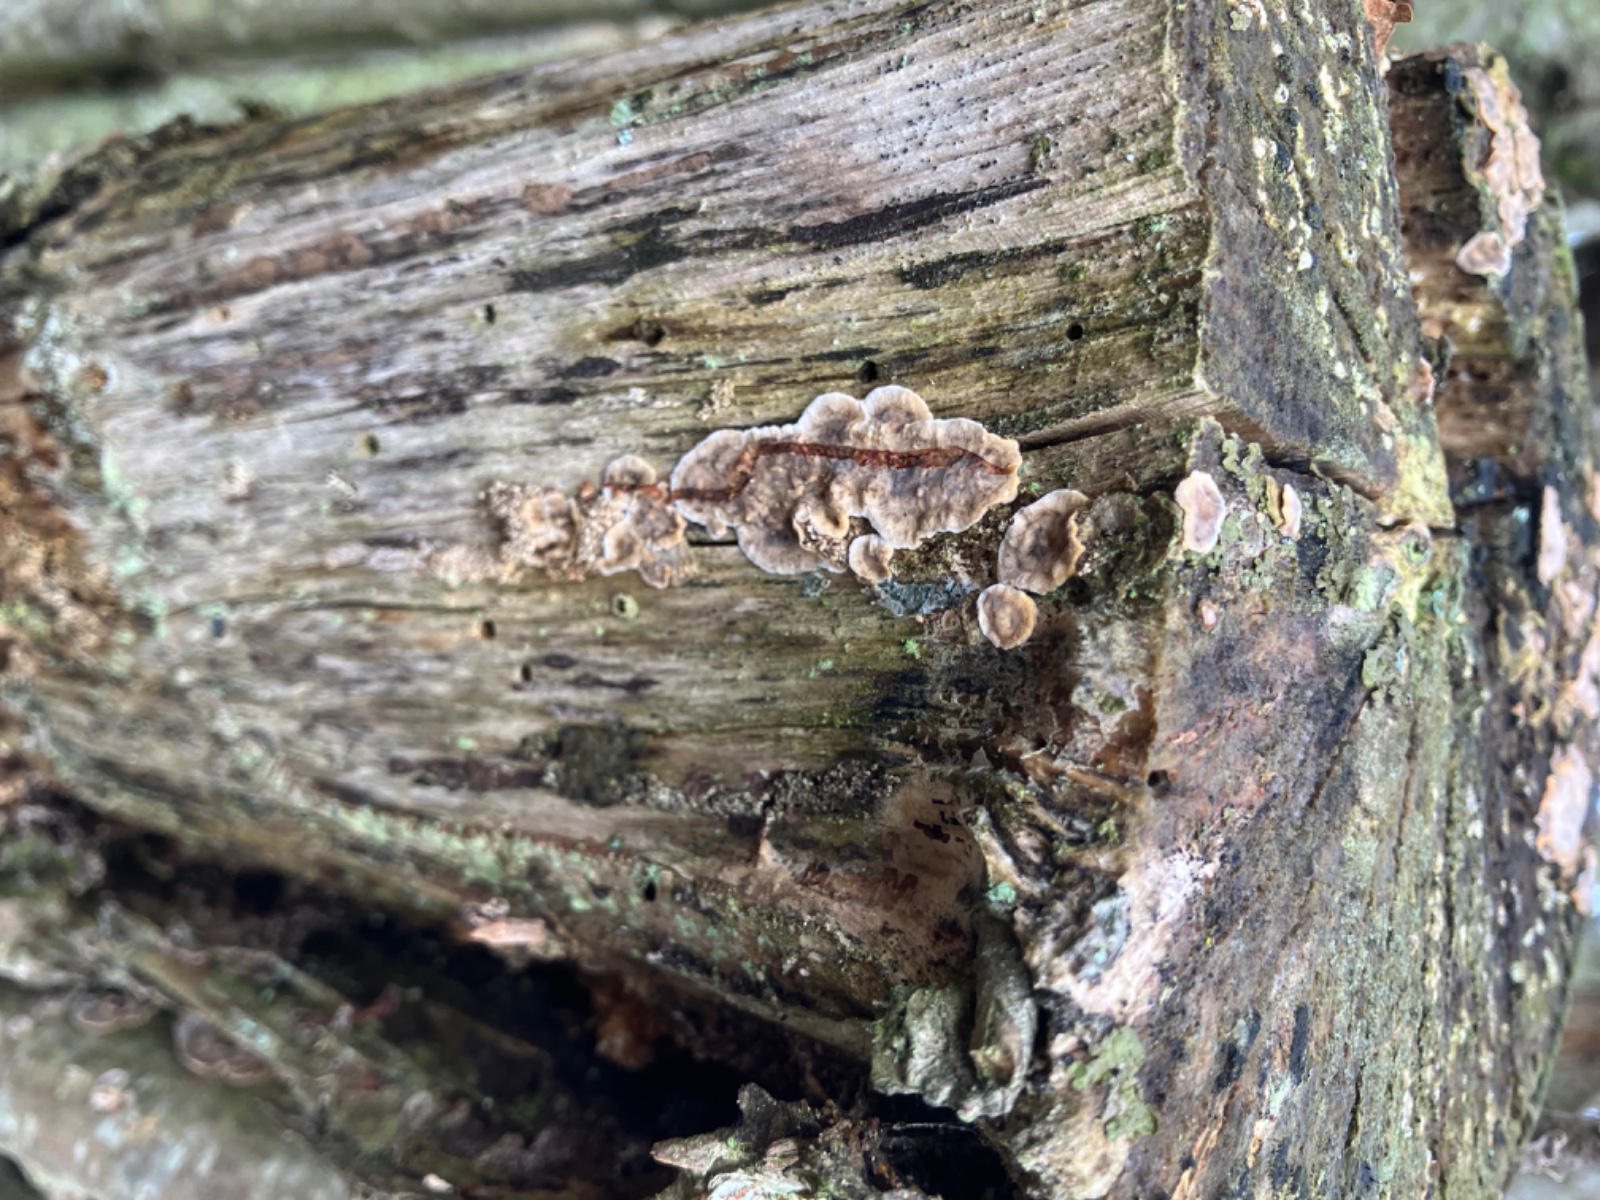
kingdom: Fungi
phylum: Basidiomycota
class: Agaricomycetes
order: Russulales
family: Stereaceae
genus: Stereum
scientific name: Stereum rugosum
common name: rynket lædersvamp
